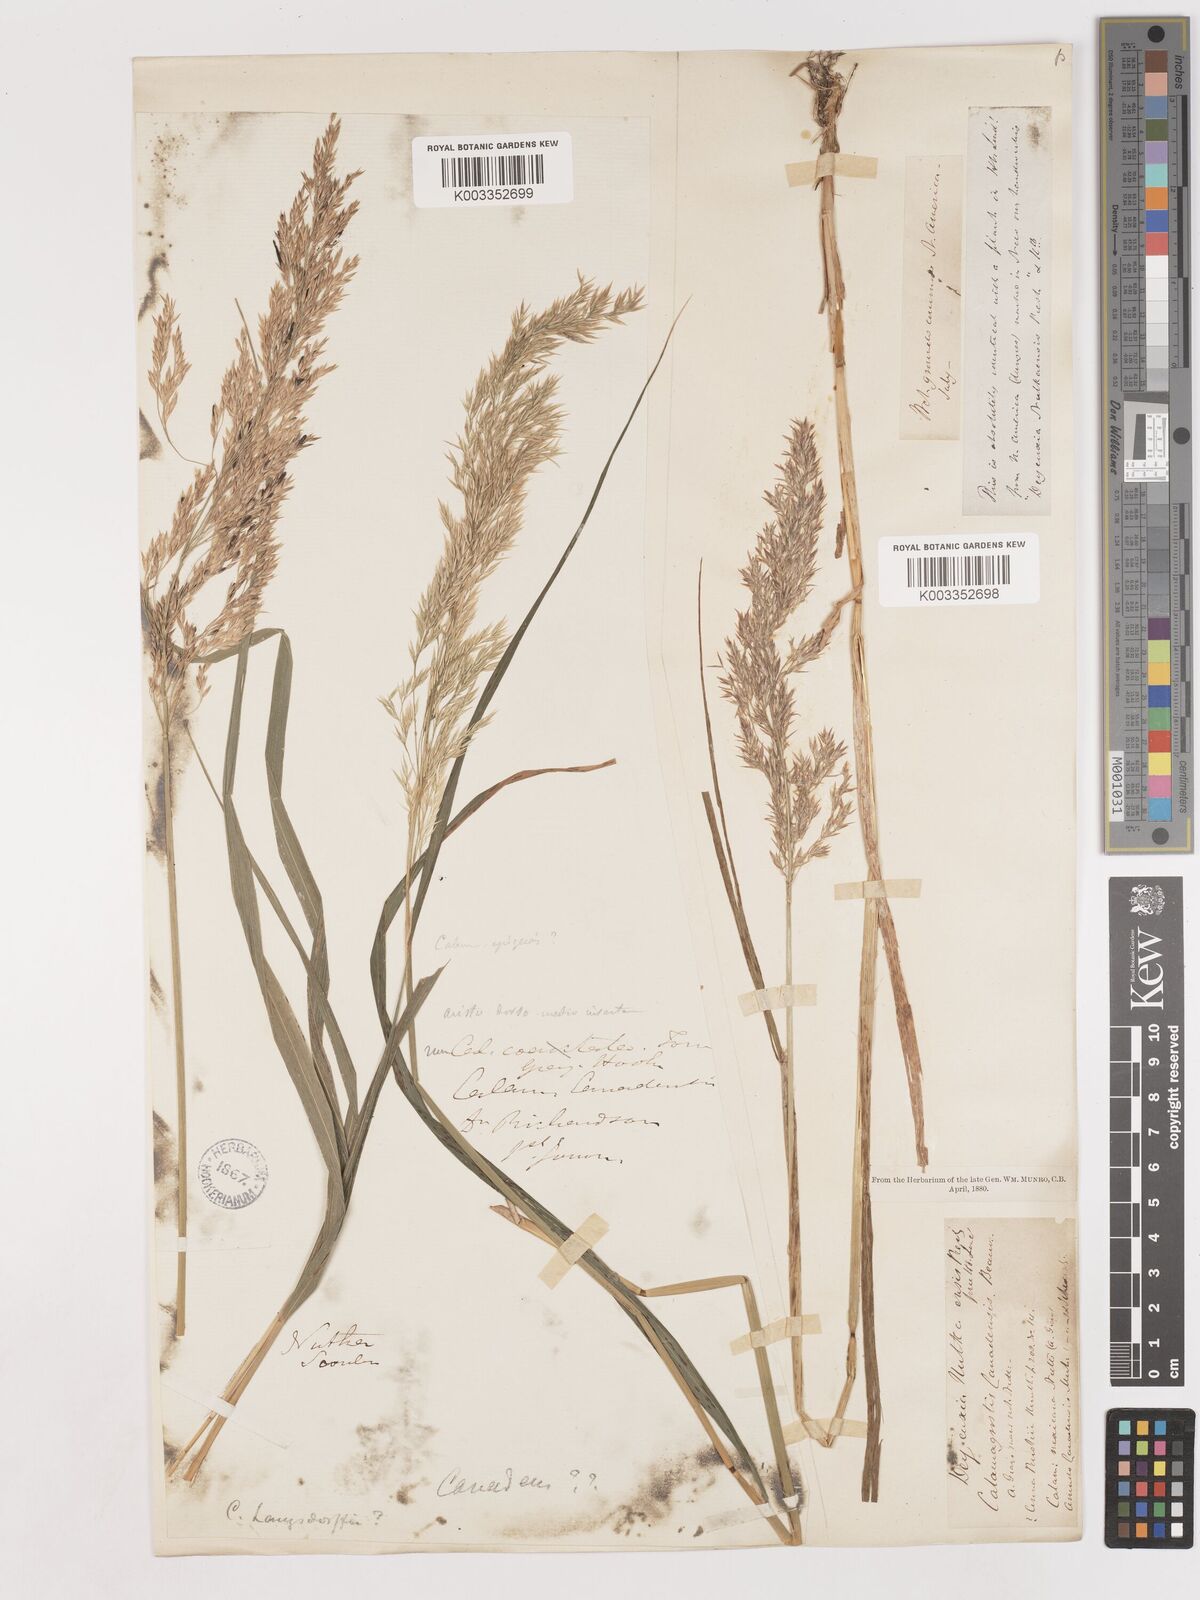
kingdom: Plantae
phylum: Tracheophyta
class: Liliopsida
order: Poales
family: Poaceae
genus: Calamagrostis
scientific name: Calamagrostis canadensis
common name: Canada bluejoint
